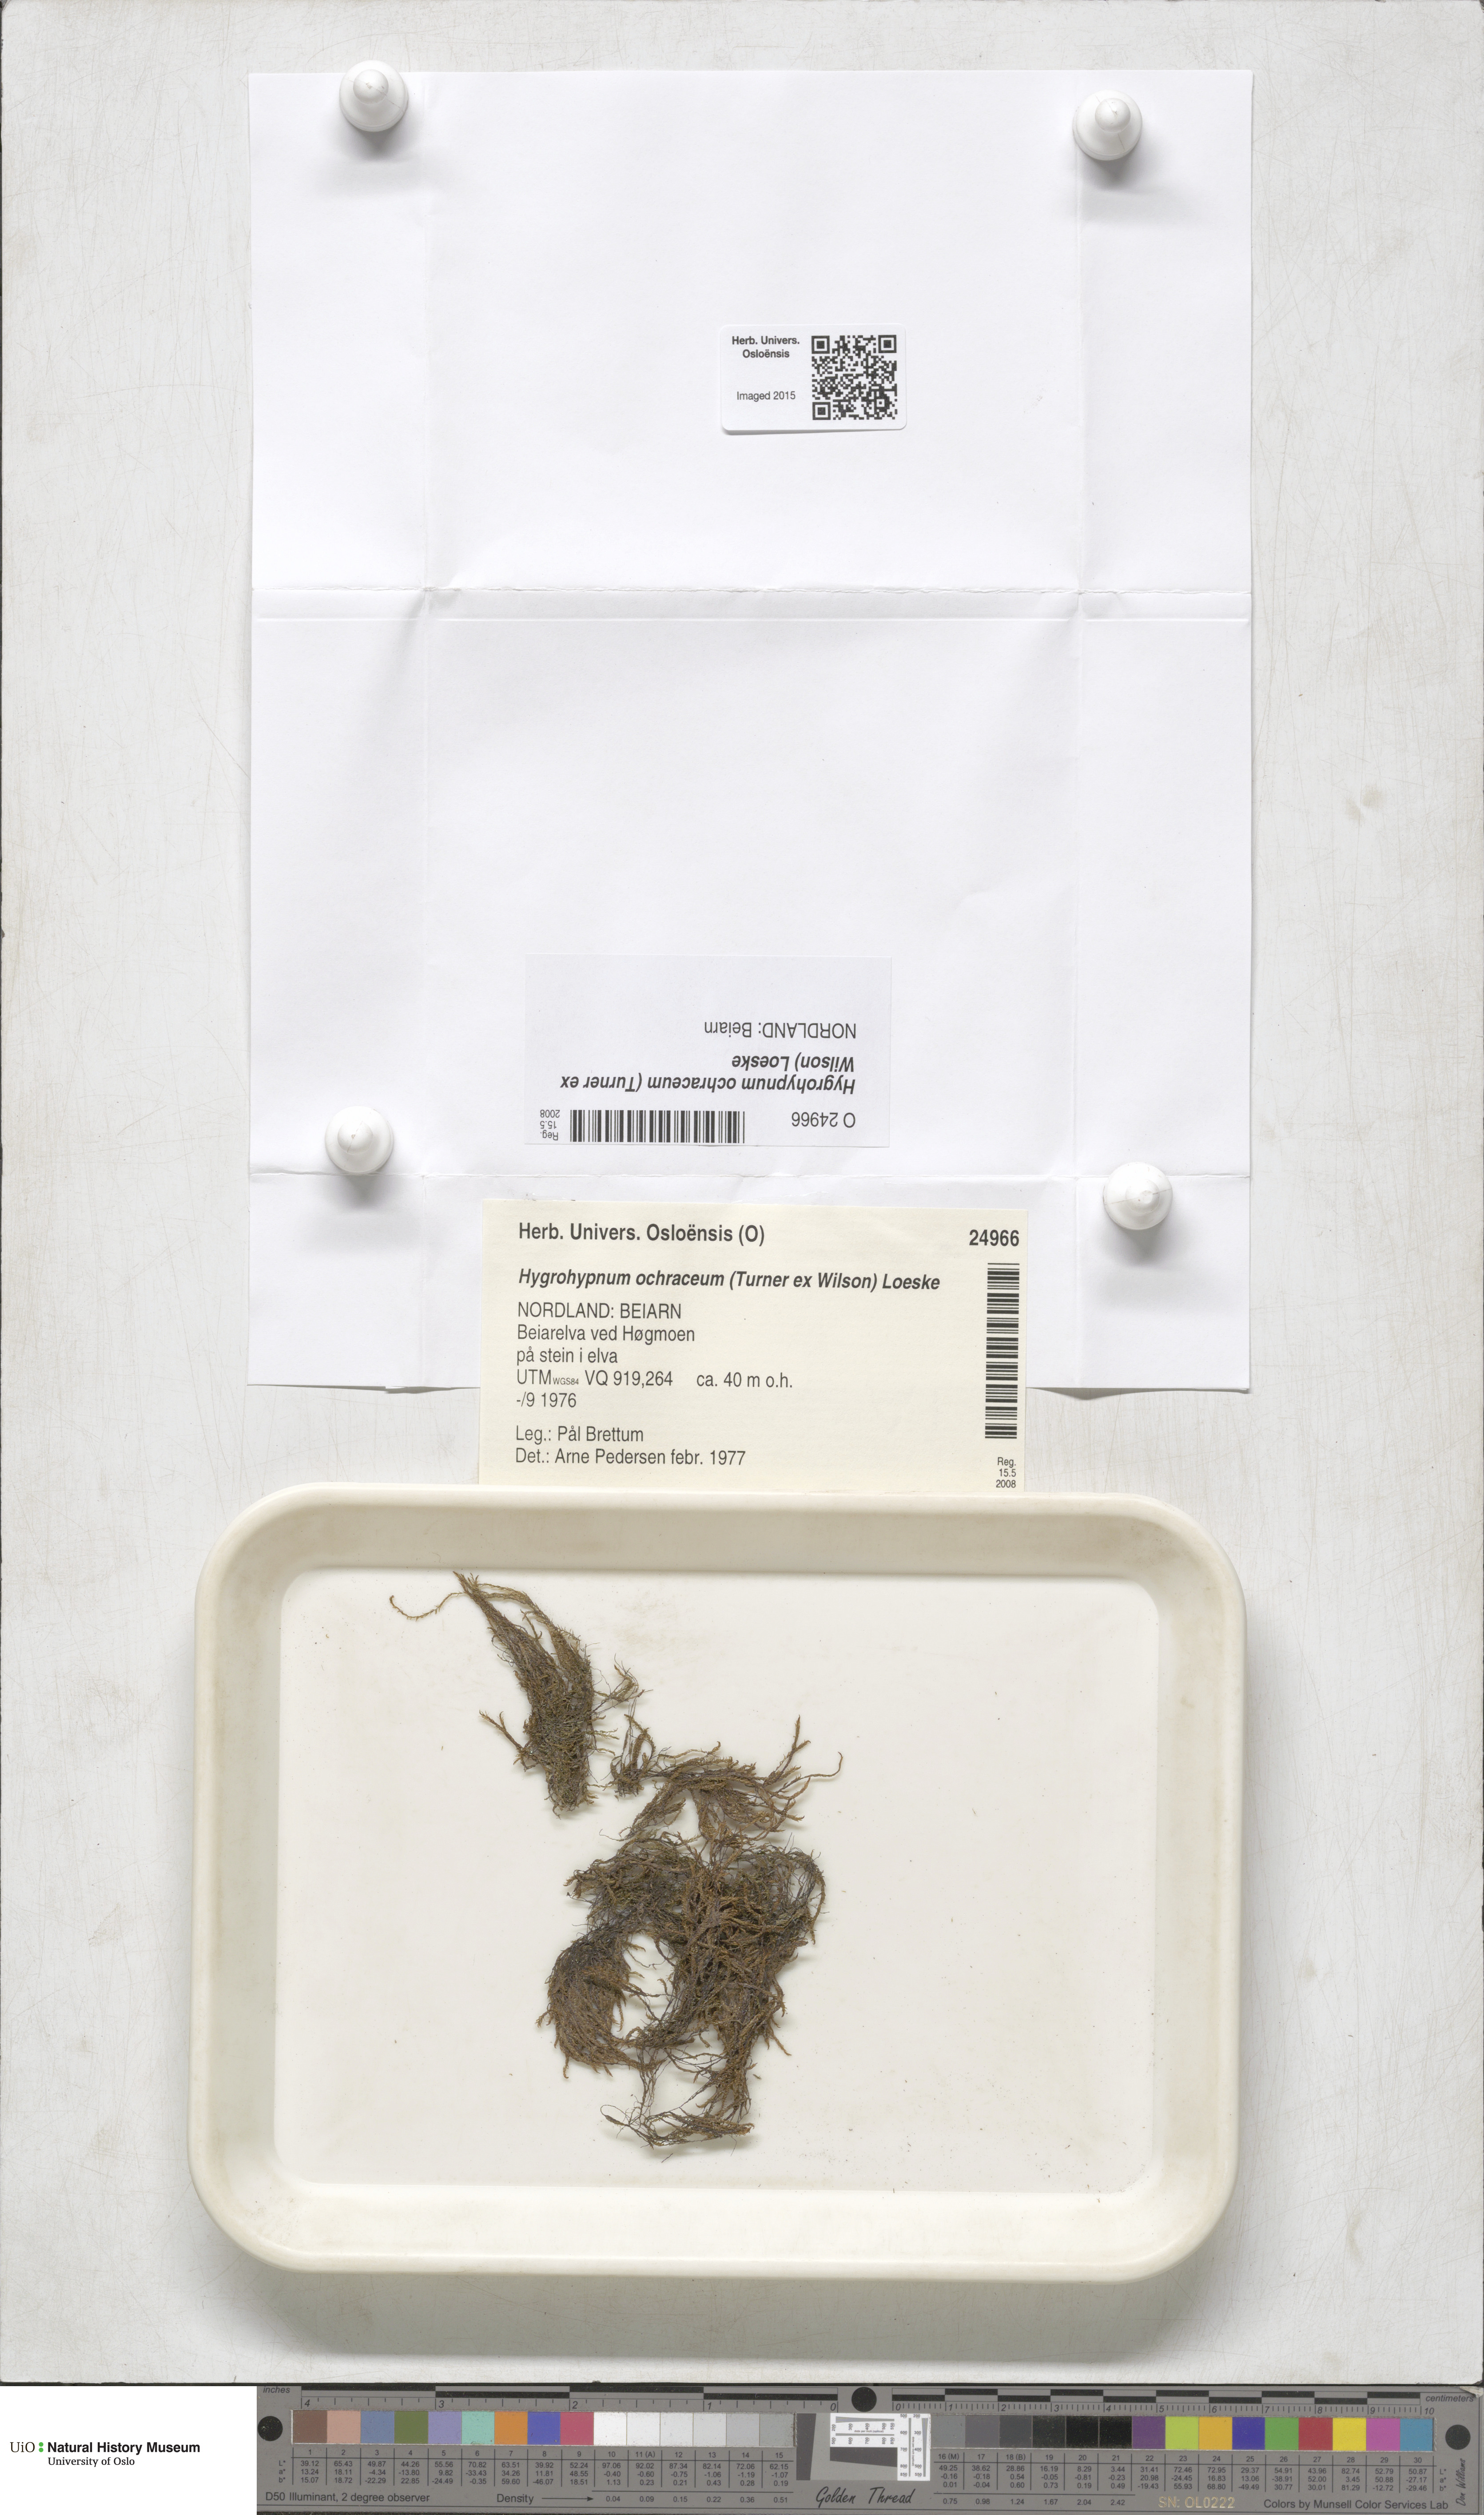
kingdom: Plantae
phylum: Bryophyta
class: Bryopsida
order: Hypnales
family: Scorpidiaceae
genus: Hygrohypnella
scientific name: Hygrohypnella ochracea
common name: Hygrohypnum moss
